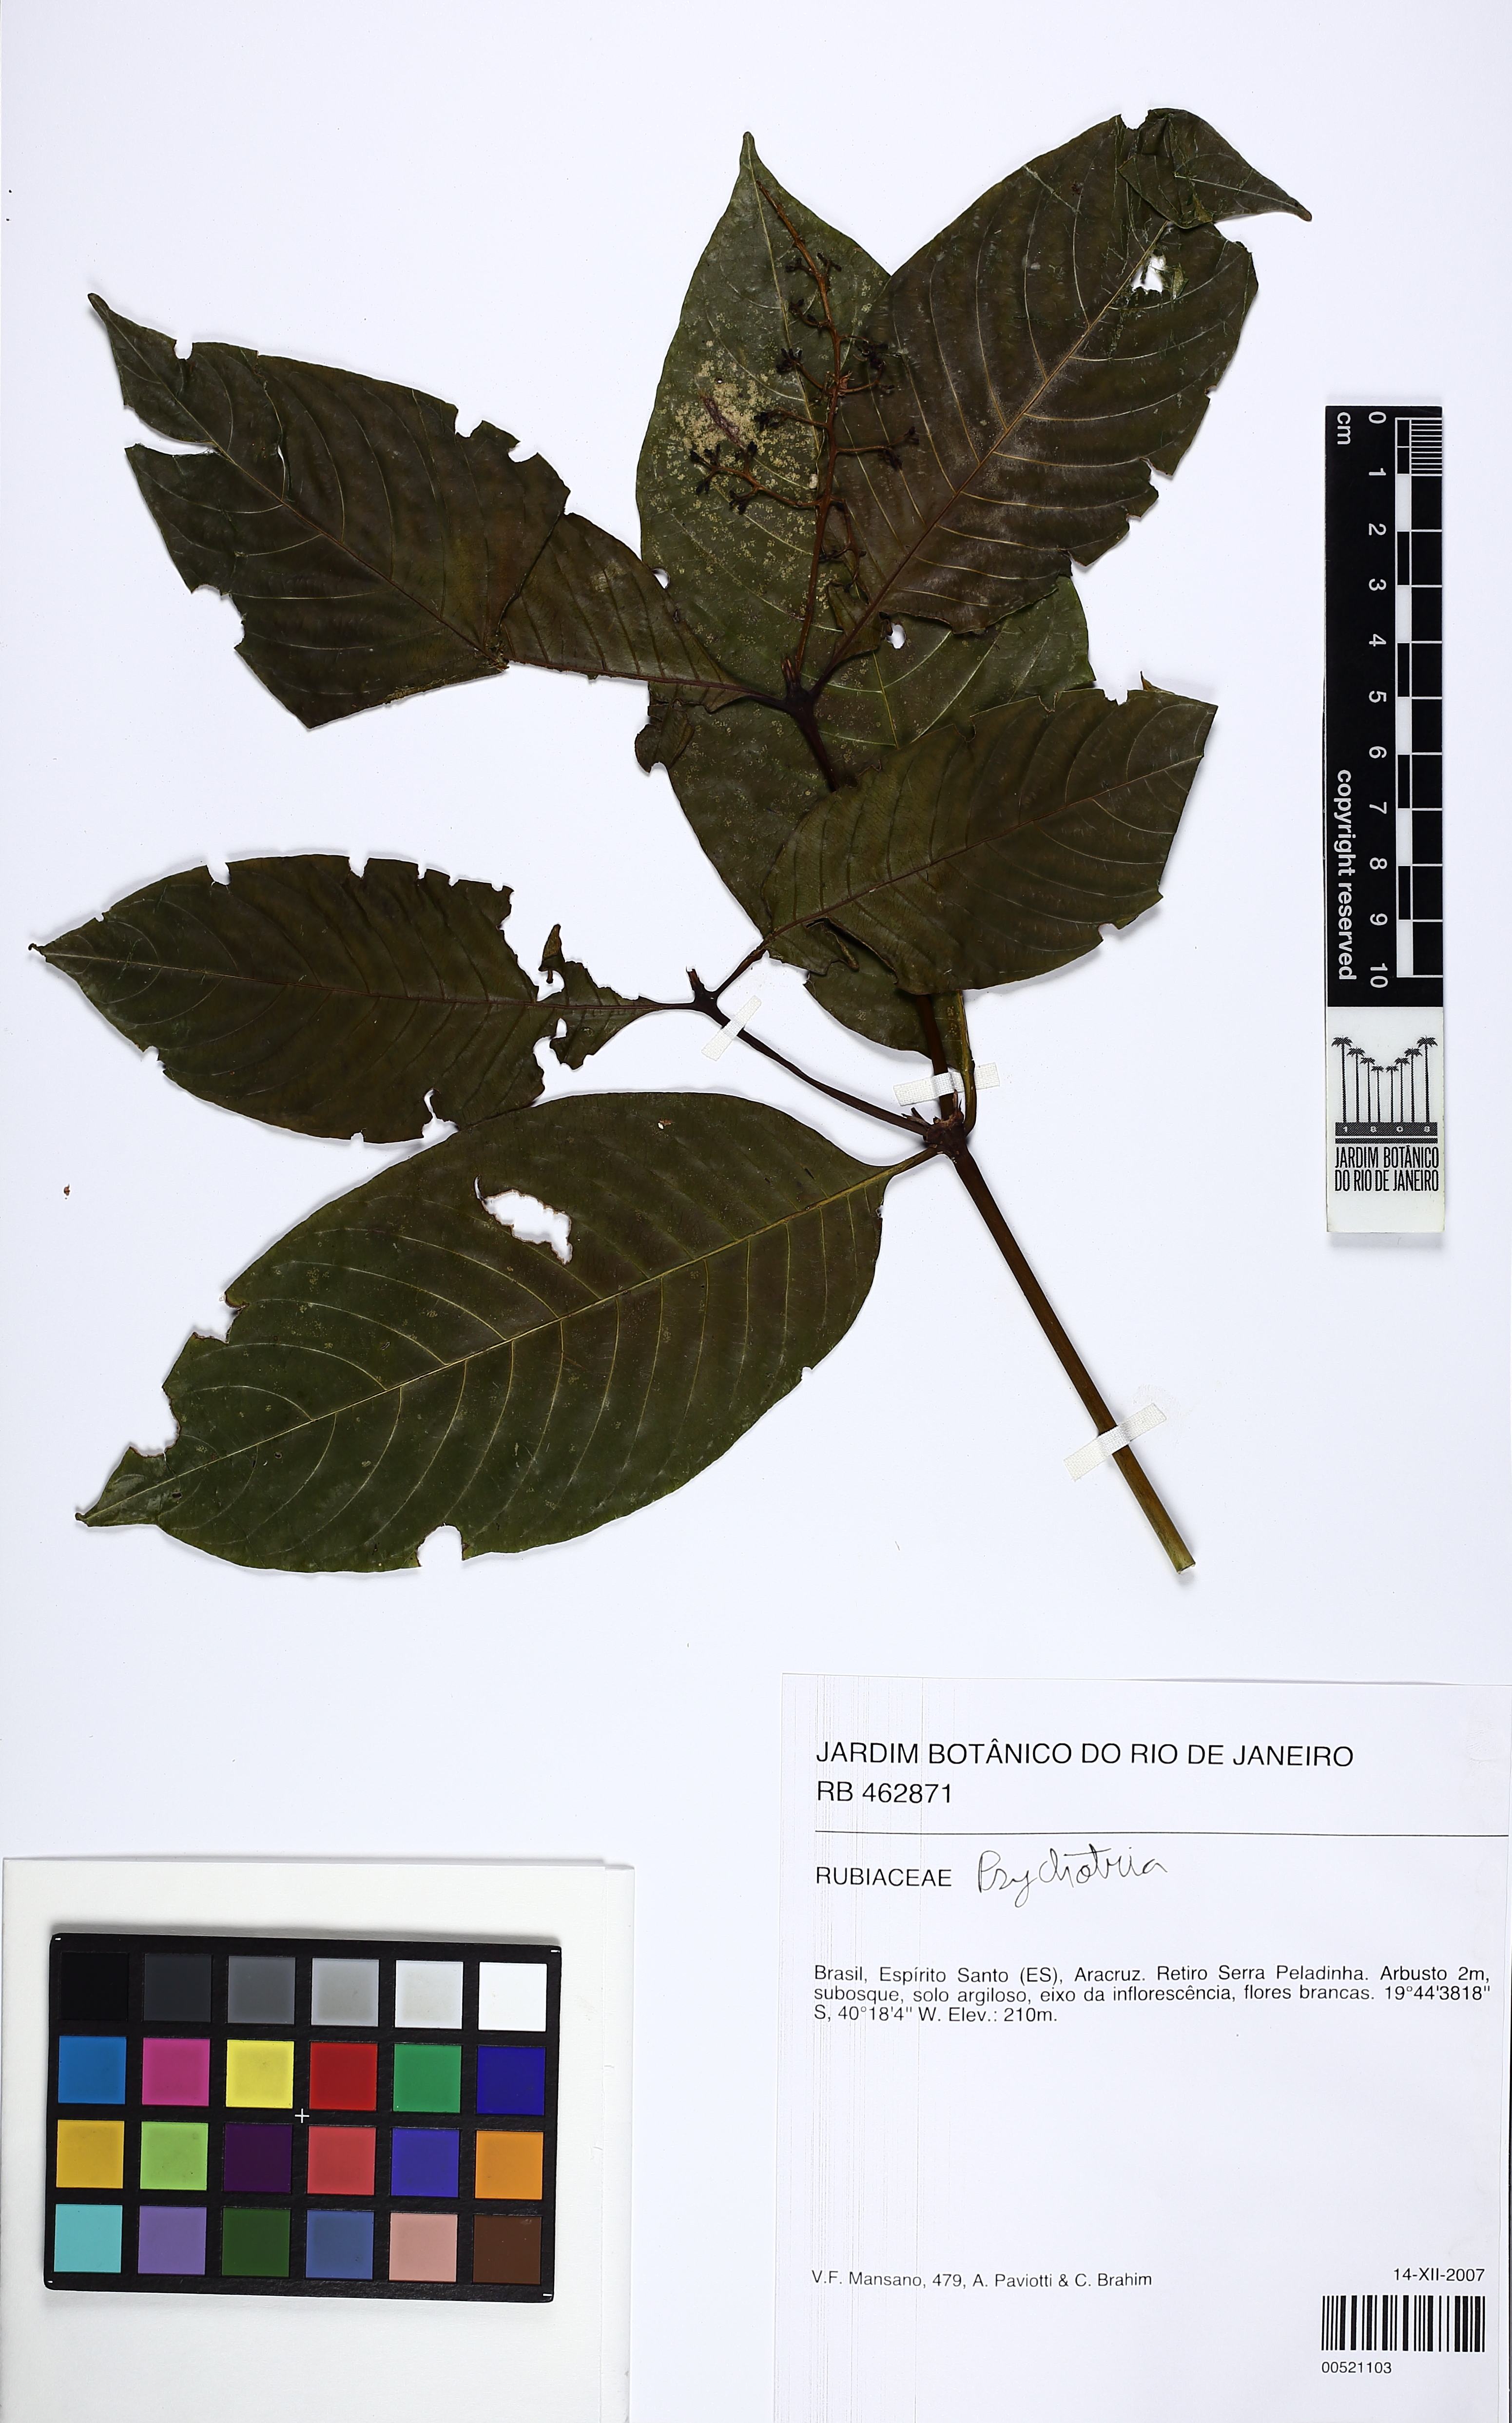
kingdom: Plantae
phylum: Tracheophyta
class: Magnoliopsida
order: Gentianales
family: Rubiaceae
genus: Psychotria
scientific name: Psychotria
